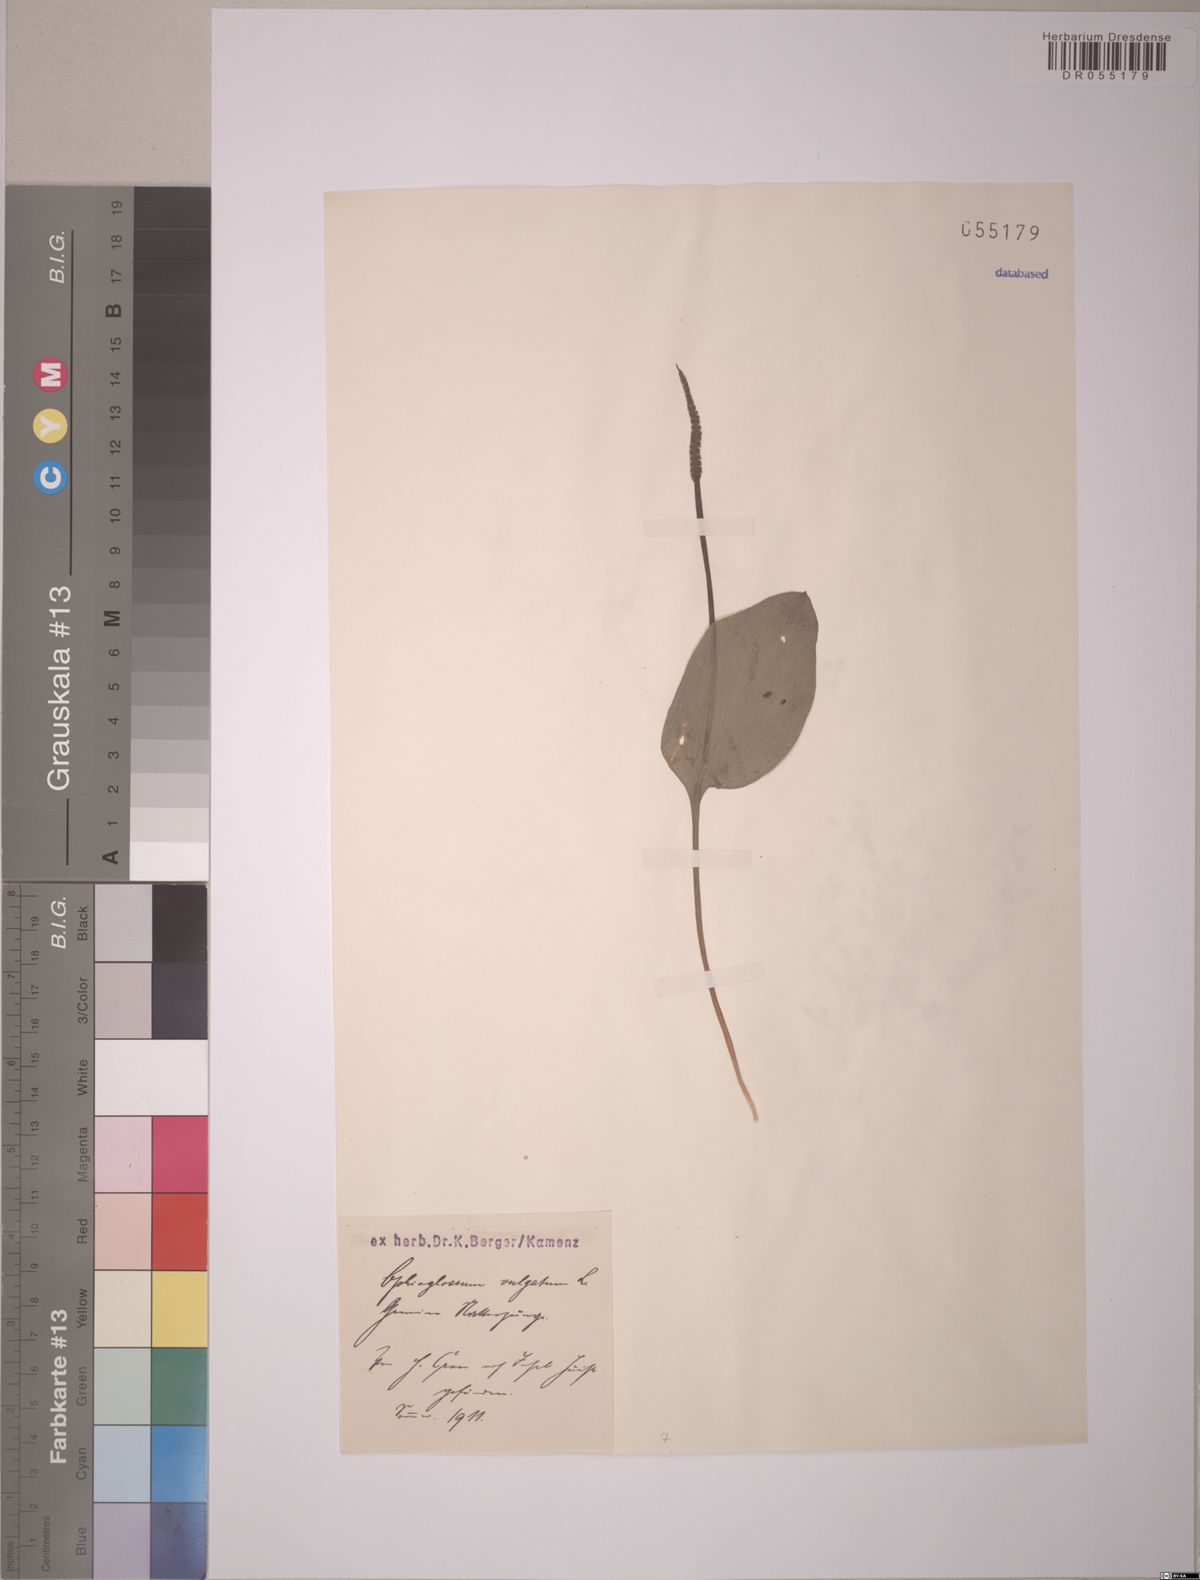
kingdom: Plantae
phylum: Tracheophyta
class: Polypodiopsida
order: Ophioglossales
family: Ophioglossaceae
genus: Ophioglossum
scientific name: Ophioglossum vulgatum
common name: Adder's-tongue
